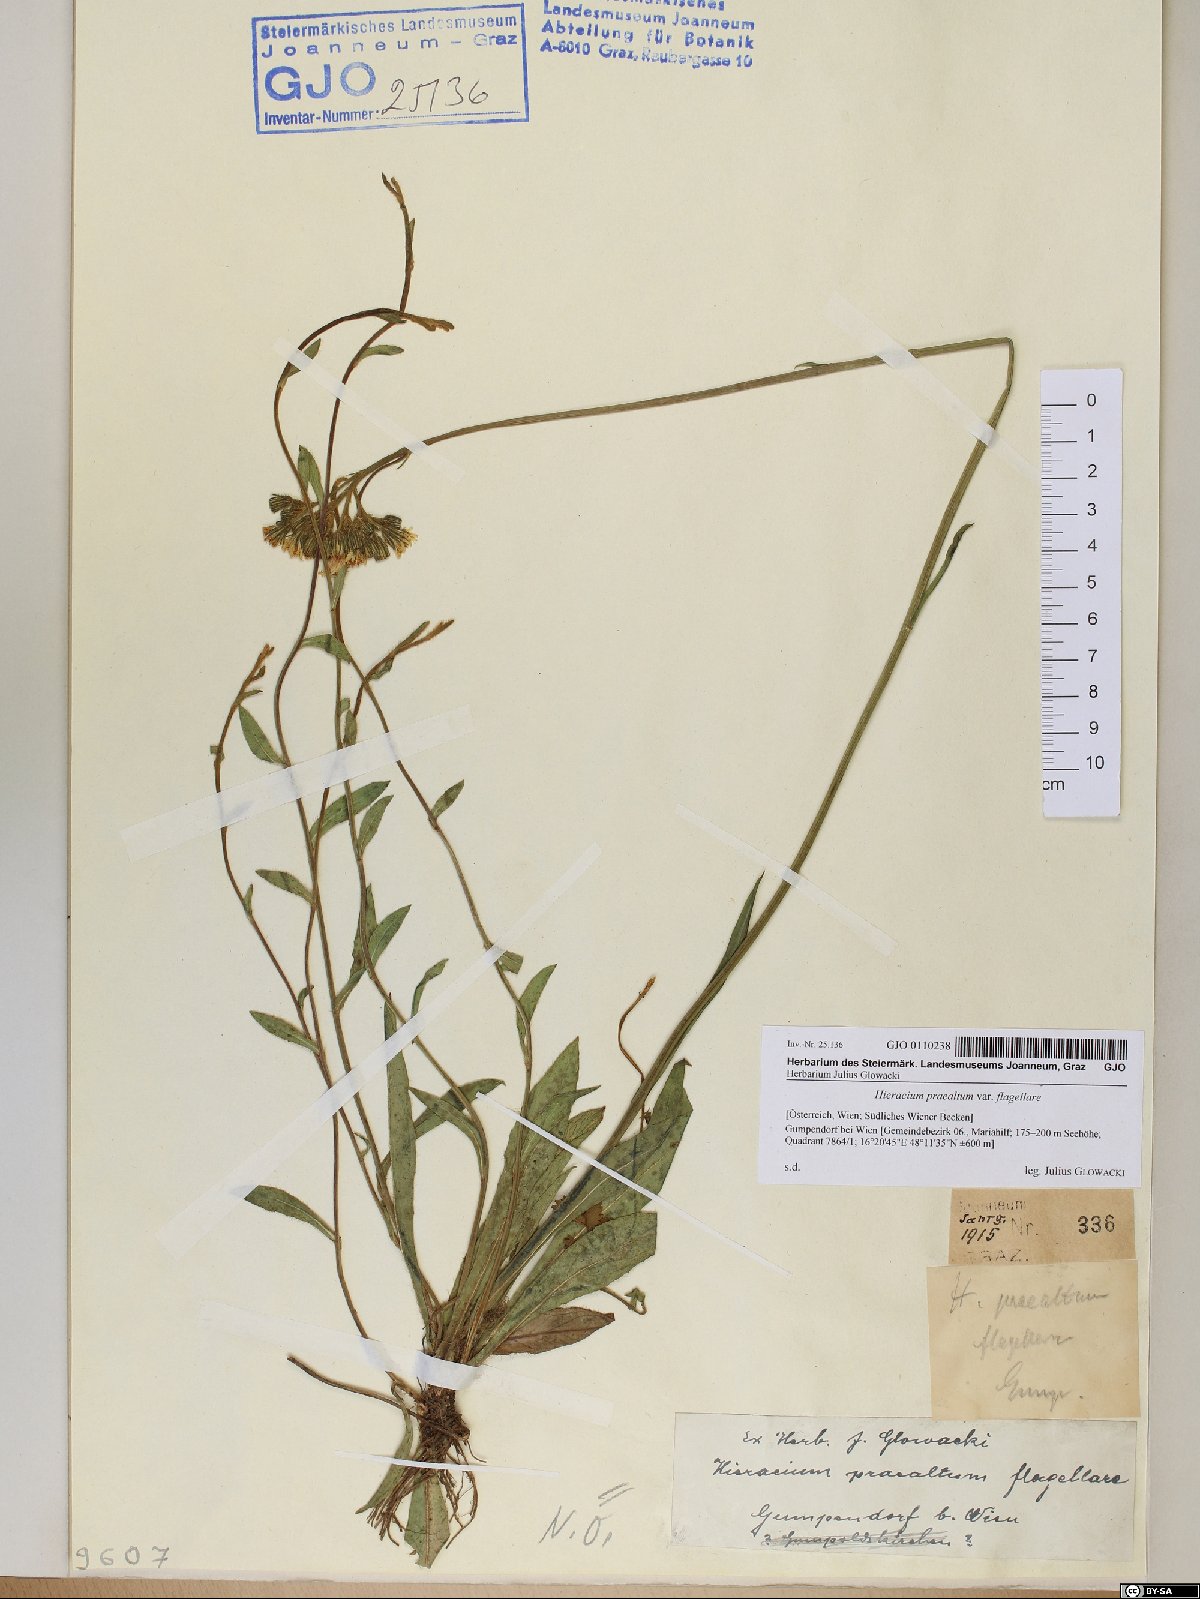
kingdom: Plantae
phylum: Tracheophyta
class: Magnoliopsida
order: Asterales
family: Asteraceae
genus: Hieracium
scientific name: Hieracium praealtum
